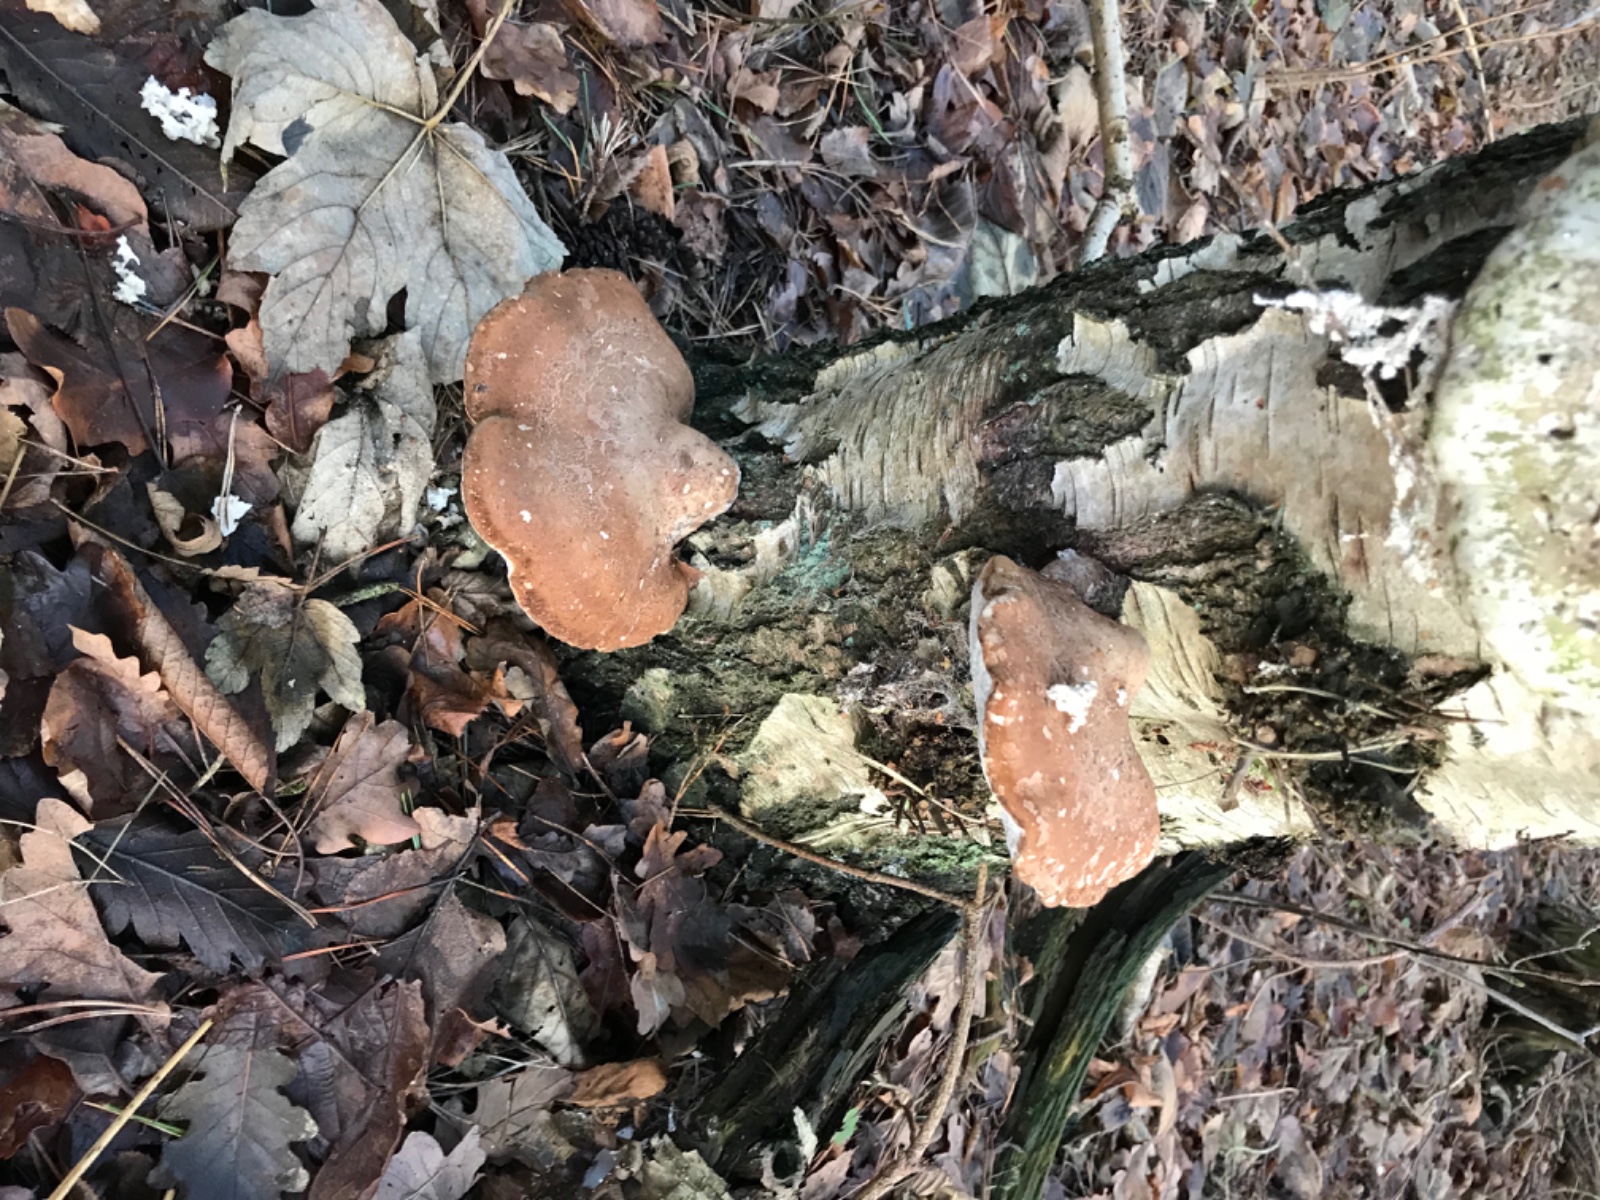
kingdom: Fungi
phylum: Basidiomycota
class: Agaricomycetes
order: Polyporales
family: Fomitopsidaceae
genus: Fomitopsis
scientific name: Fomitopsis betulina
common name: birkeporesvamp
